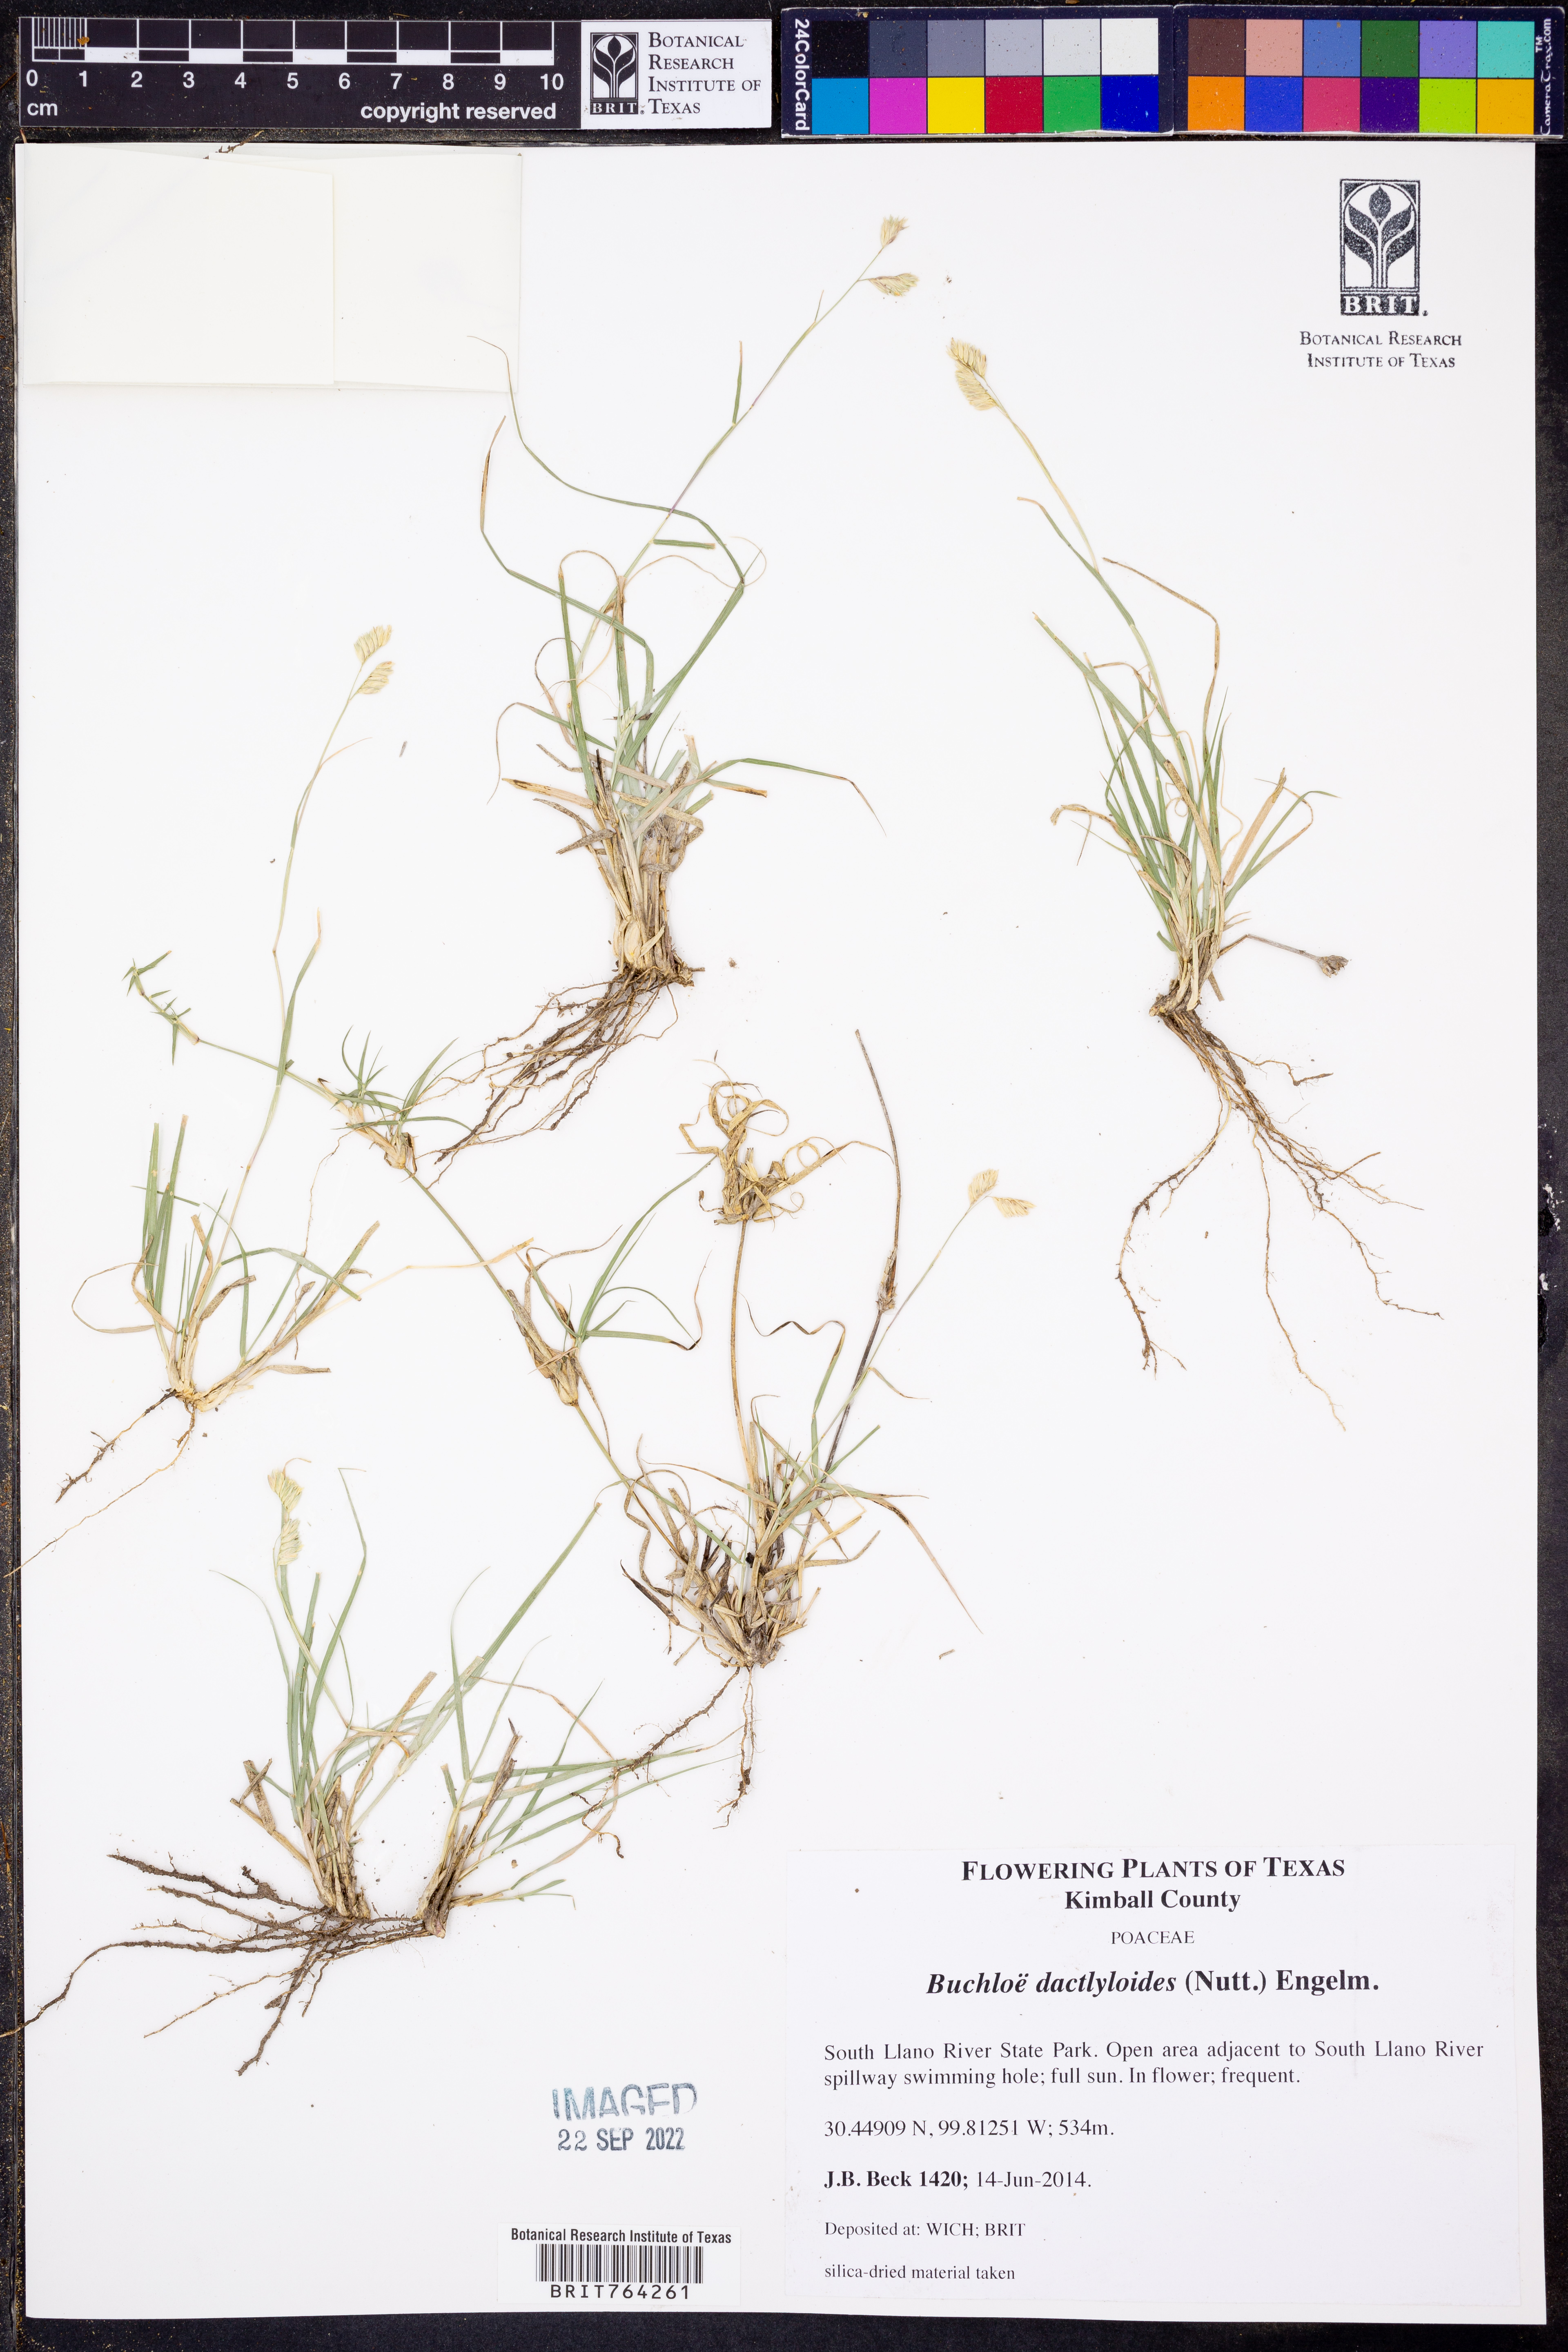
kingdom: Plantae
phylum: Tracheophyta
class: Liliopsida
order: Poales
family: Poaceae
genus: Bouteloua
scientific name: Bouteloua dactyloides
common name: Buffalo grass
